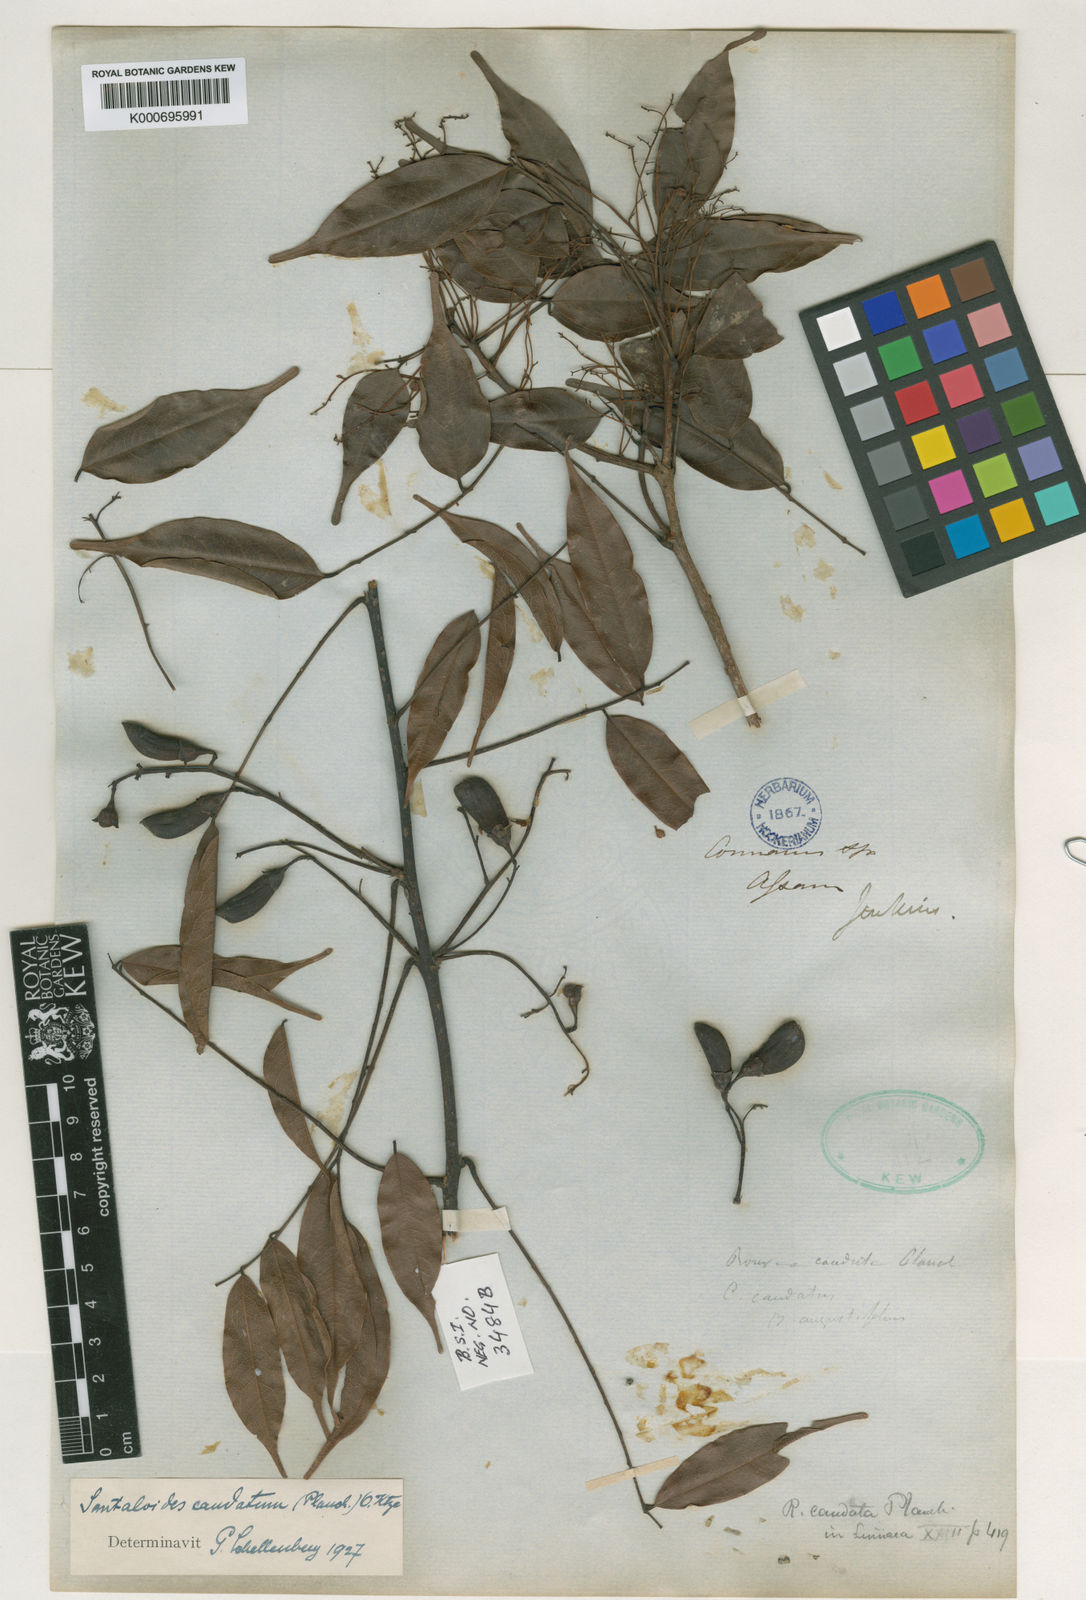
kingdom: Plantae
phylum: Tracheophyta
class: Magnoliopsida
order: Oxalidales
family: Connaraceae
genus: Rourea
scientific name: Rourea
